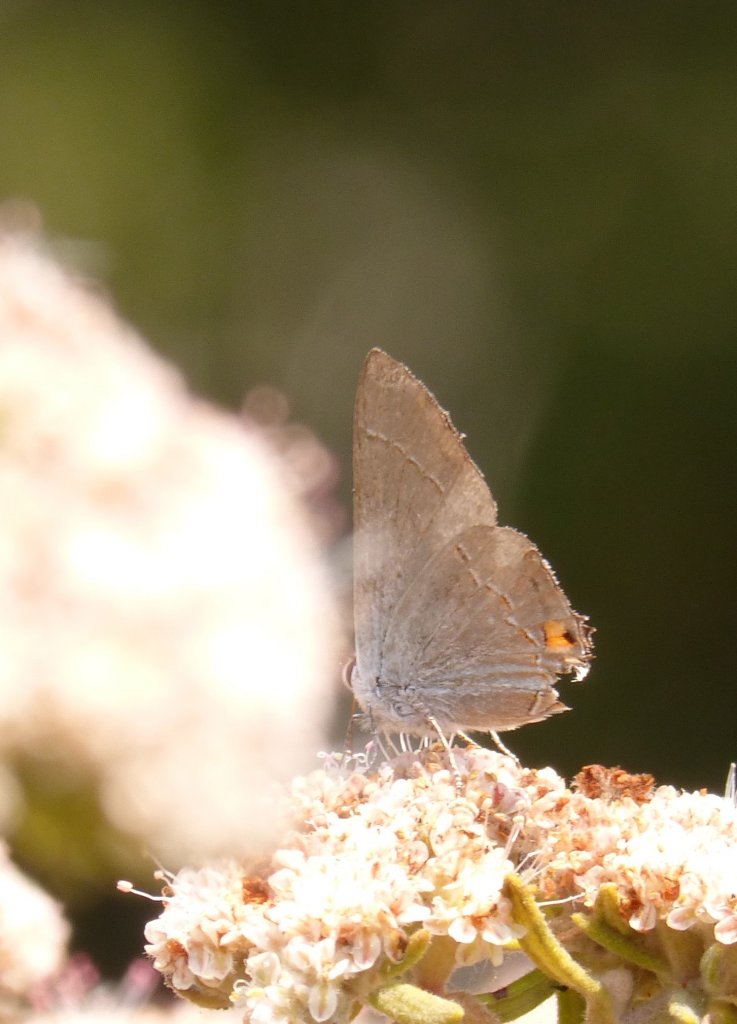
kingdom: Animalia
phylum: Arthropoda
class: Insecta
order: Lepidoptera
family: Lycaenidae
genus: Strymon
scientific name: Strymon melinus
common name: Gray Hairstreak
